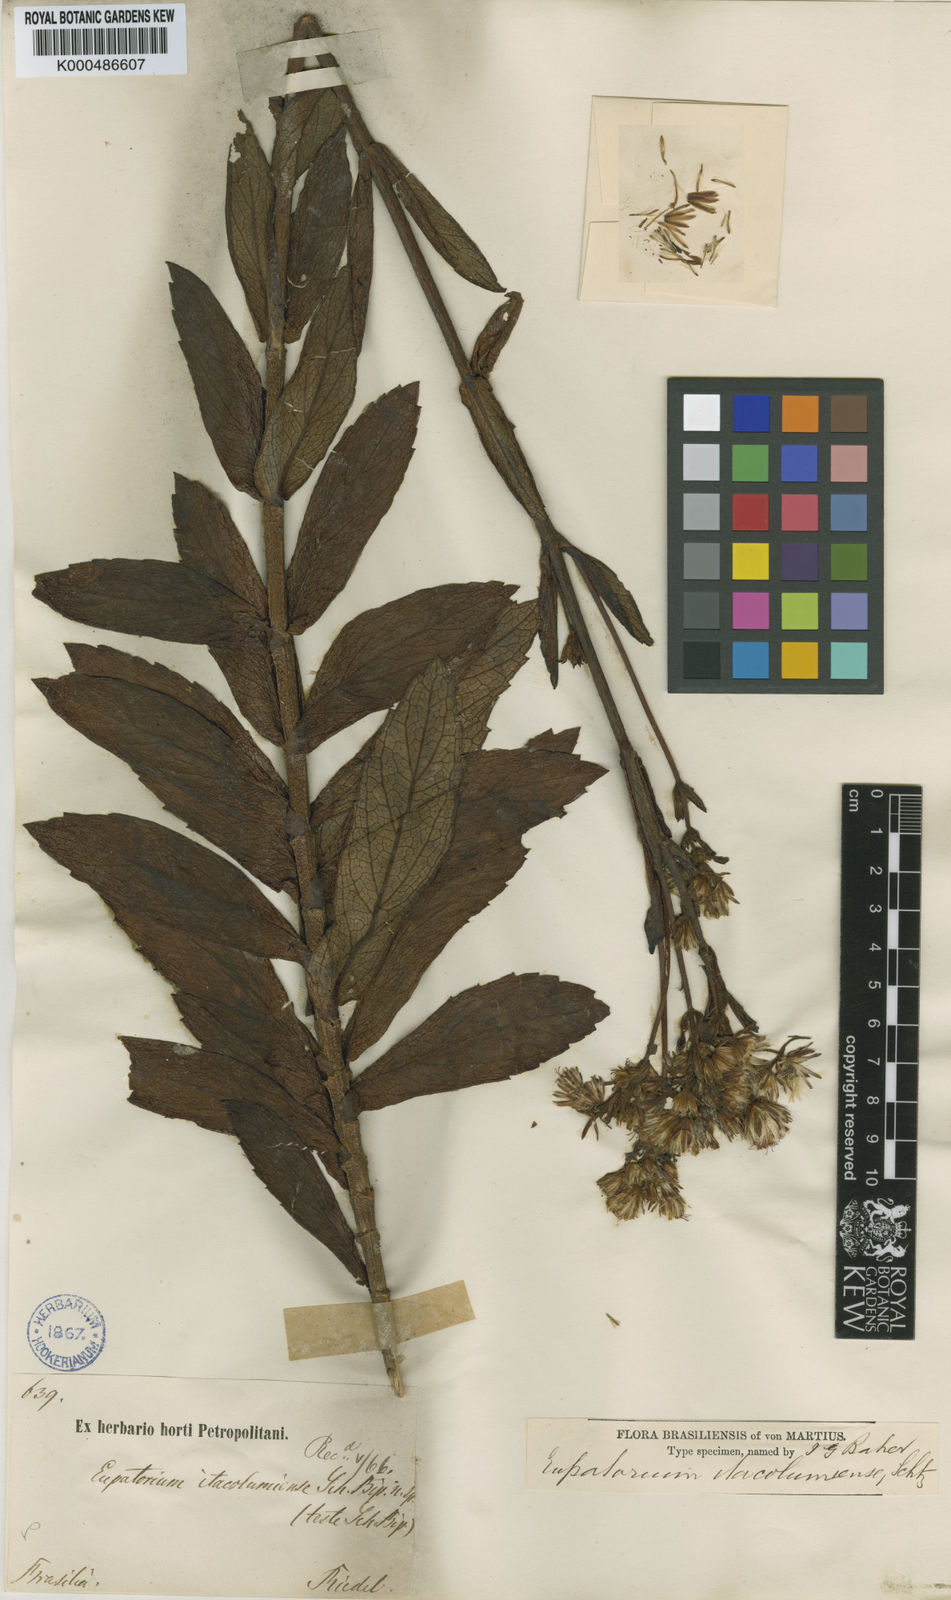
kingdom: Plantae
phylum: Tracheophyta
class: Magnoliopsida
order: Asterales
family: Asteraceae
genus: Heterocondylus
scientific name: Heterocondylus itacolumiensis
